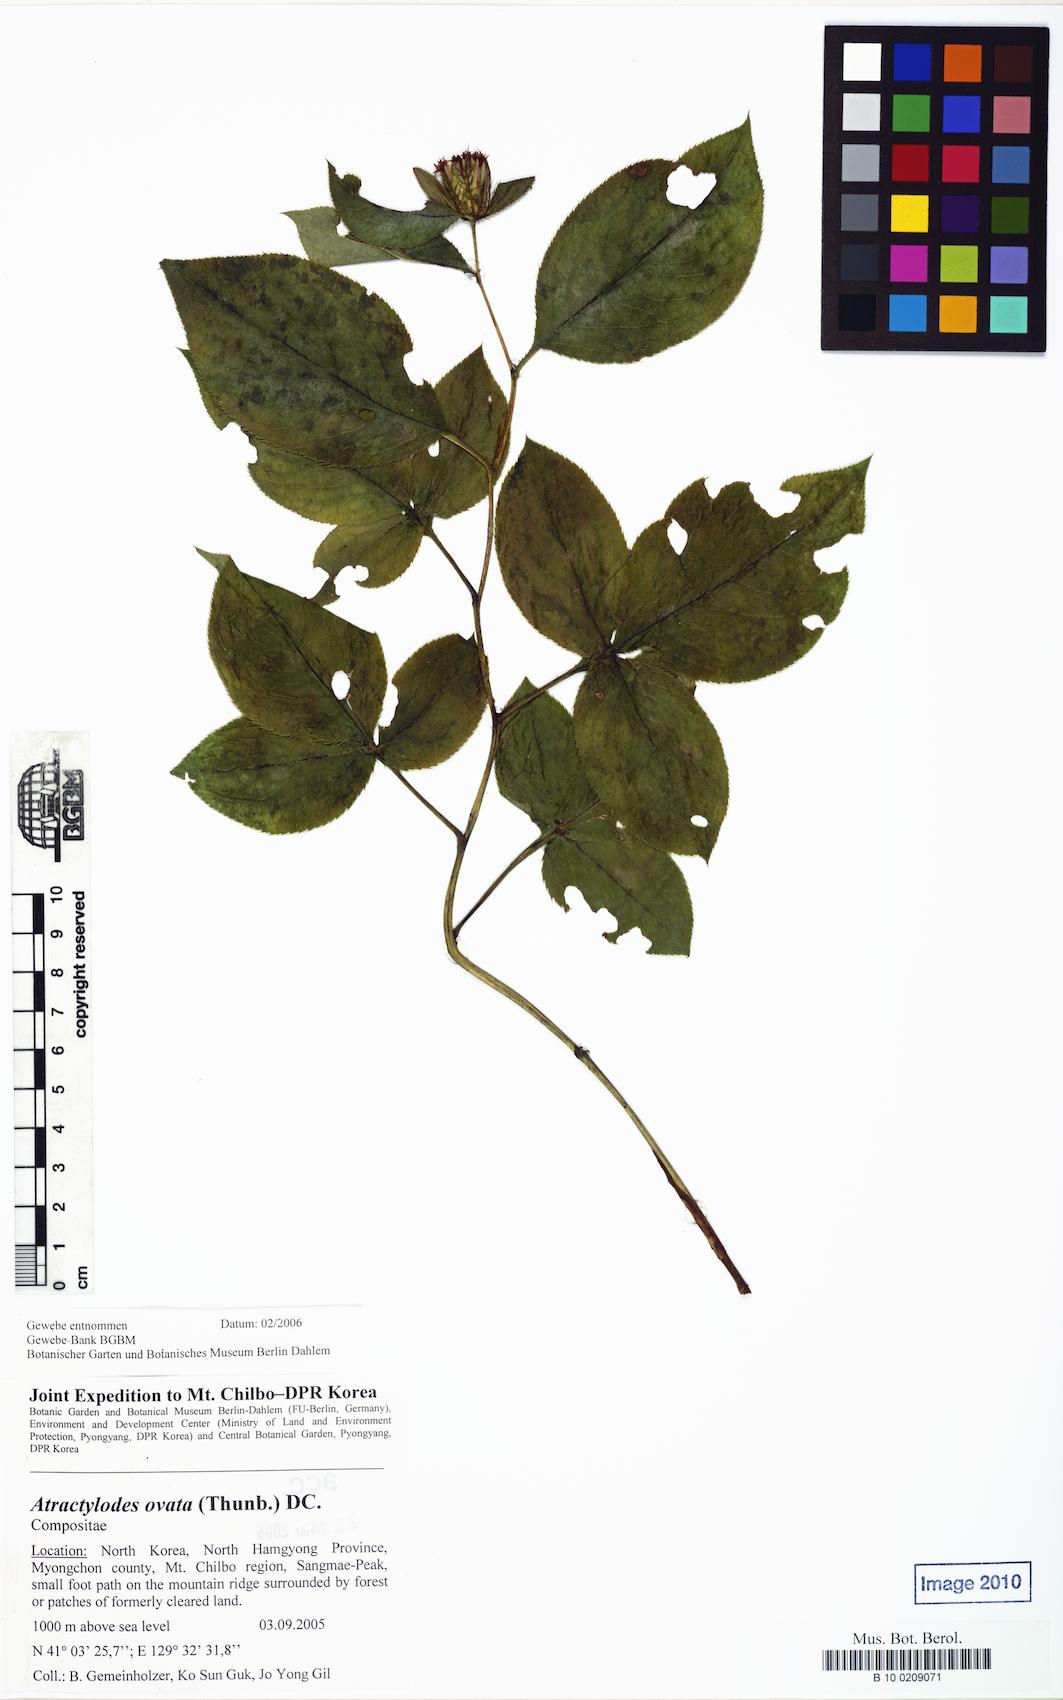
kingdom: Plantae
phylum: Tracheophyta
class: Magnoliopsida
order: Asterales
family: Asteraceae
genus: Atractylodes
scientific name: Atractylodes lancea
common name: Southern tsangshu
